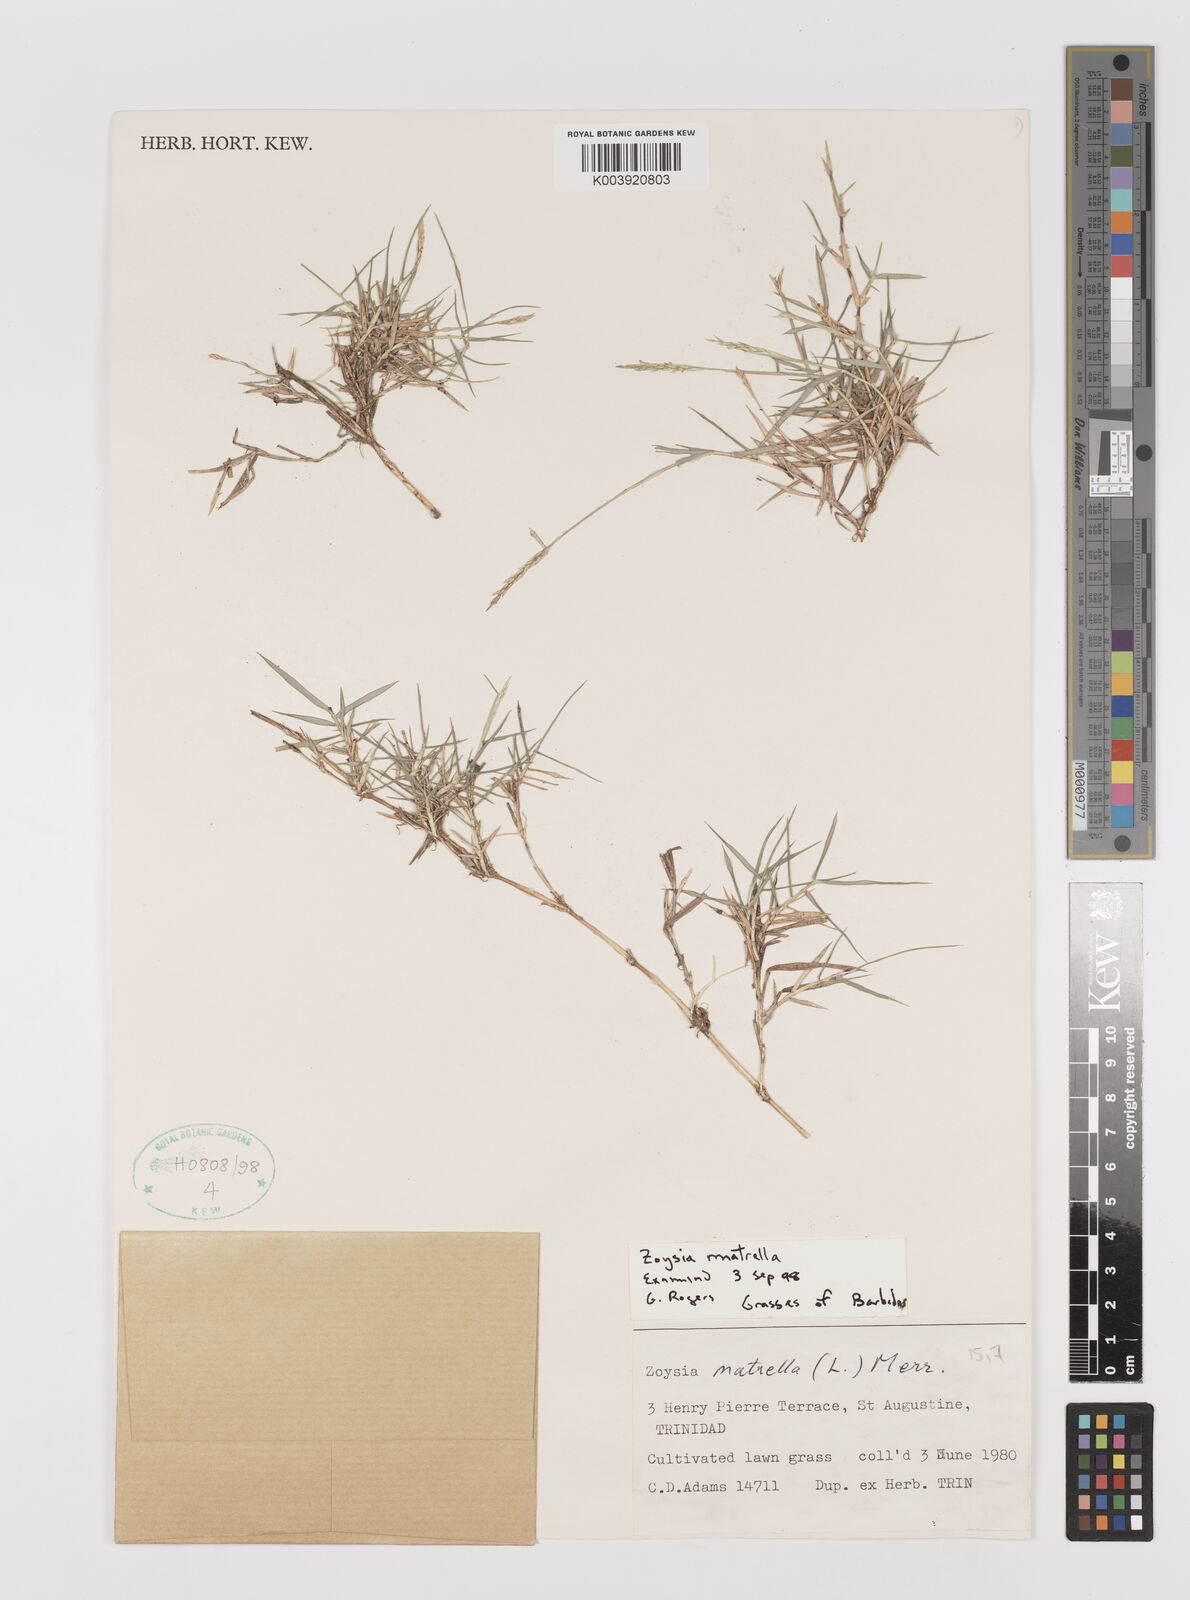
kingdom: Plantae
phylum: Tracheophyta
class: Liliopsida
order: Poales
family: Poaceae
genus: Zoysia
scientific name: Zoysia matrella
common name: Manila grass
